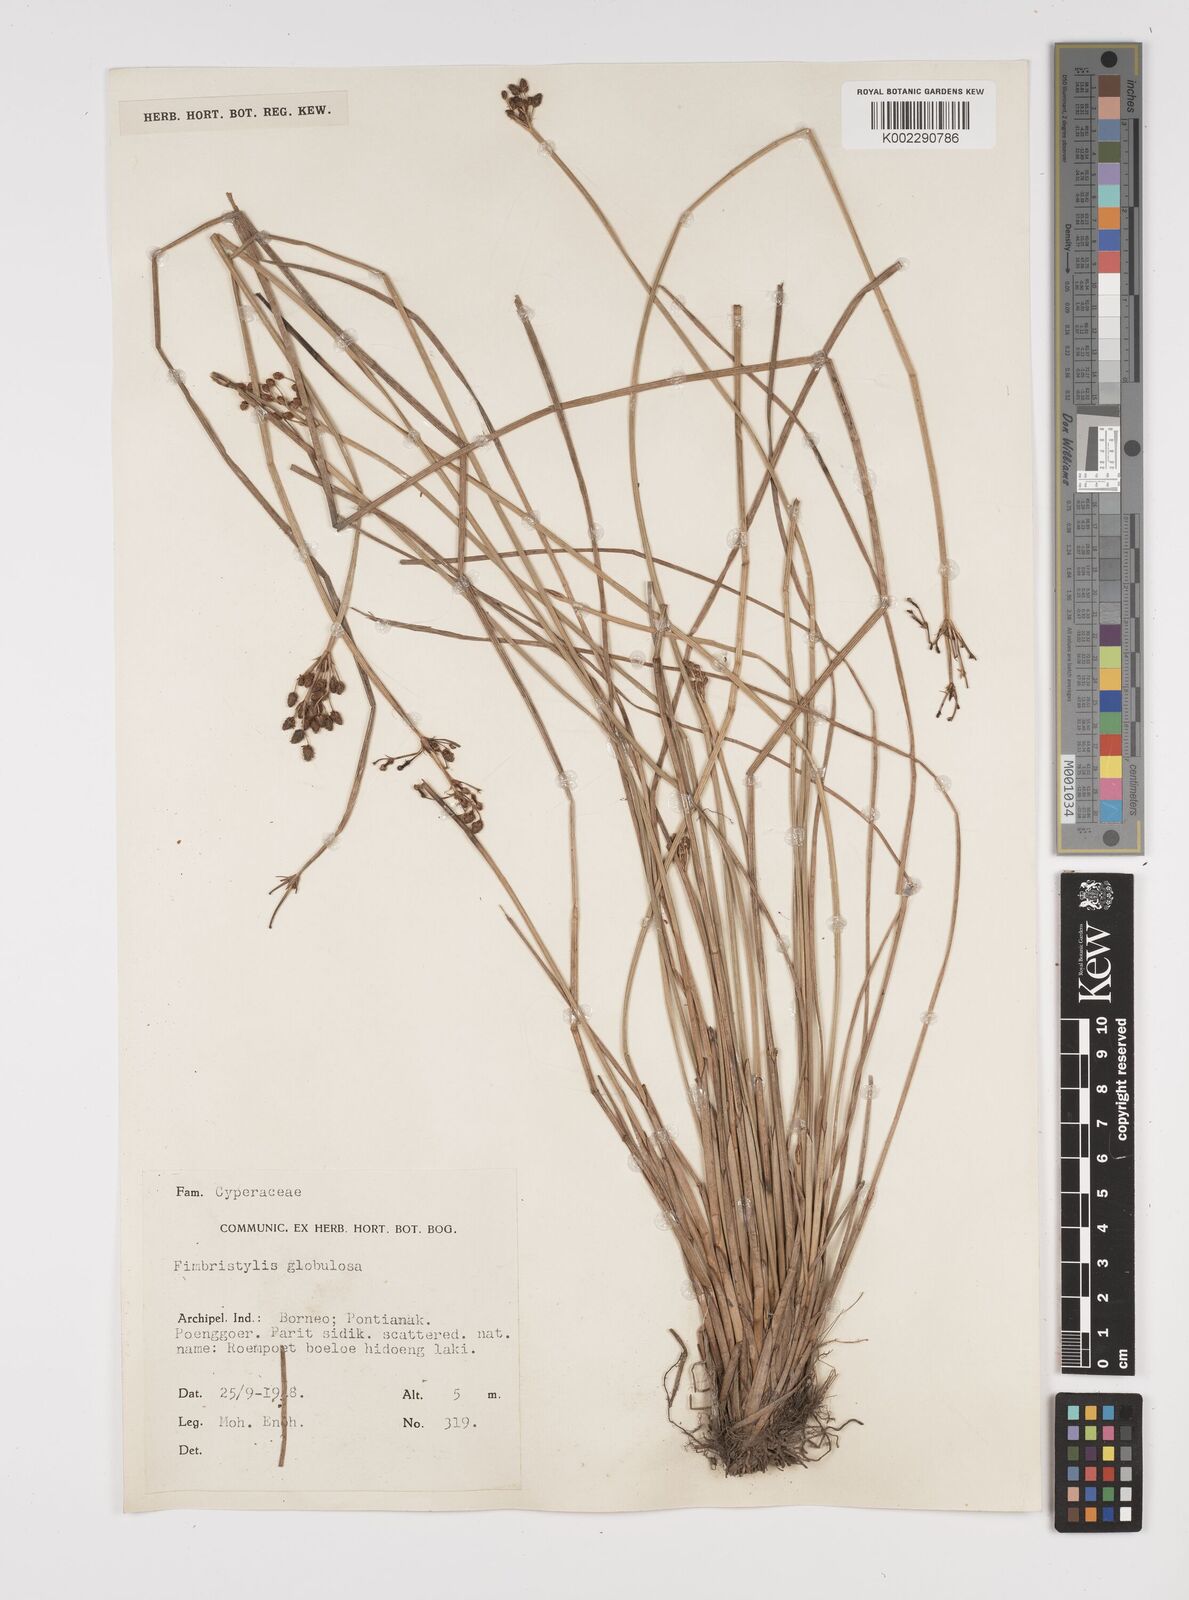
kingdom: Plantae
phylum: Tracheophyta
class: Liliopsida
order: Poales
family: Cyperaceae
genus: Fimbristylis
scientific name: Fimbristylis umbellaris
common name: Globular fimbristylis
